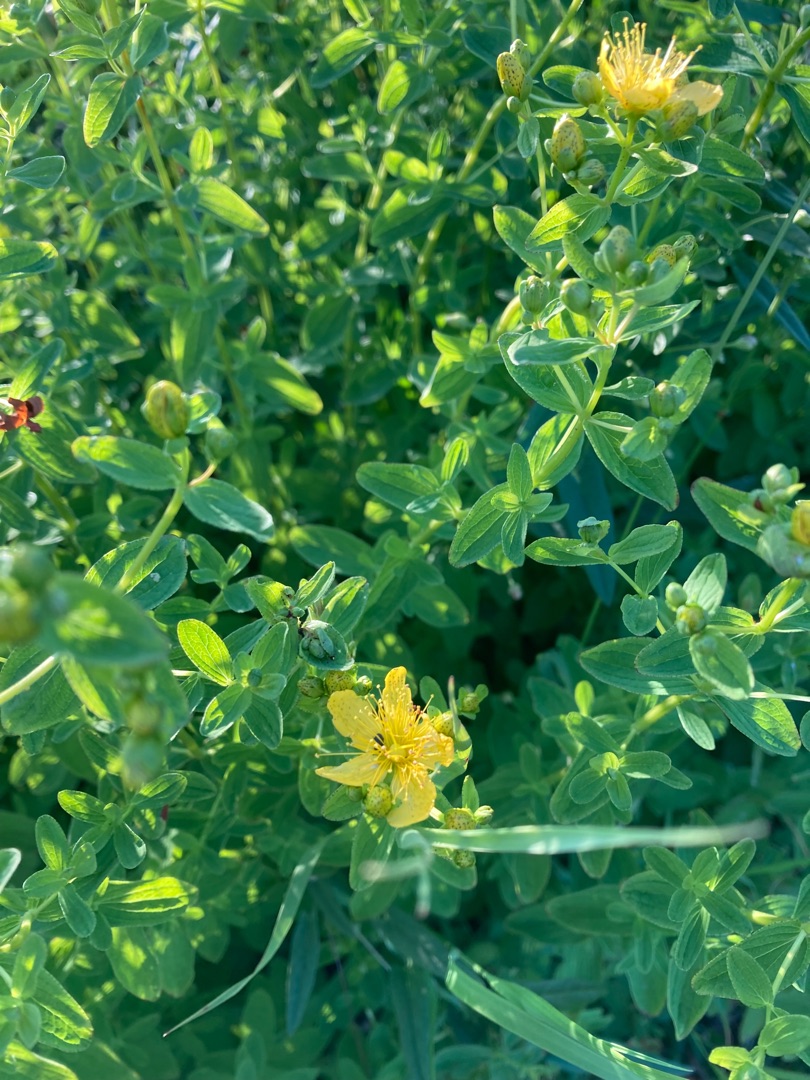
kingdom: Plantae
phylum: Tracheophyta
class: Magnoliopsida
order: Malpighiales
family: Hypericaceae
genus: Hypericum
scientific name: Hypericum maculatum
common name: Kantet perikon
